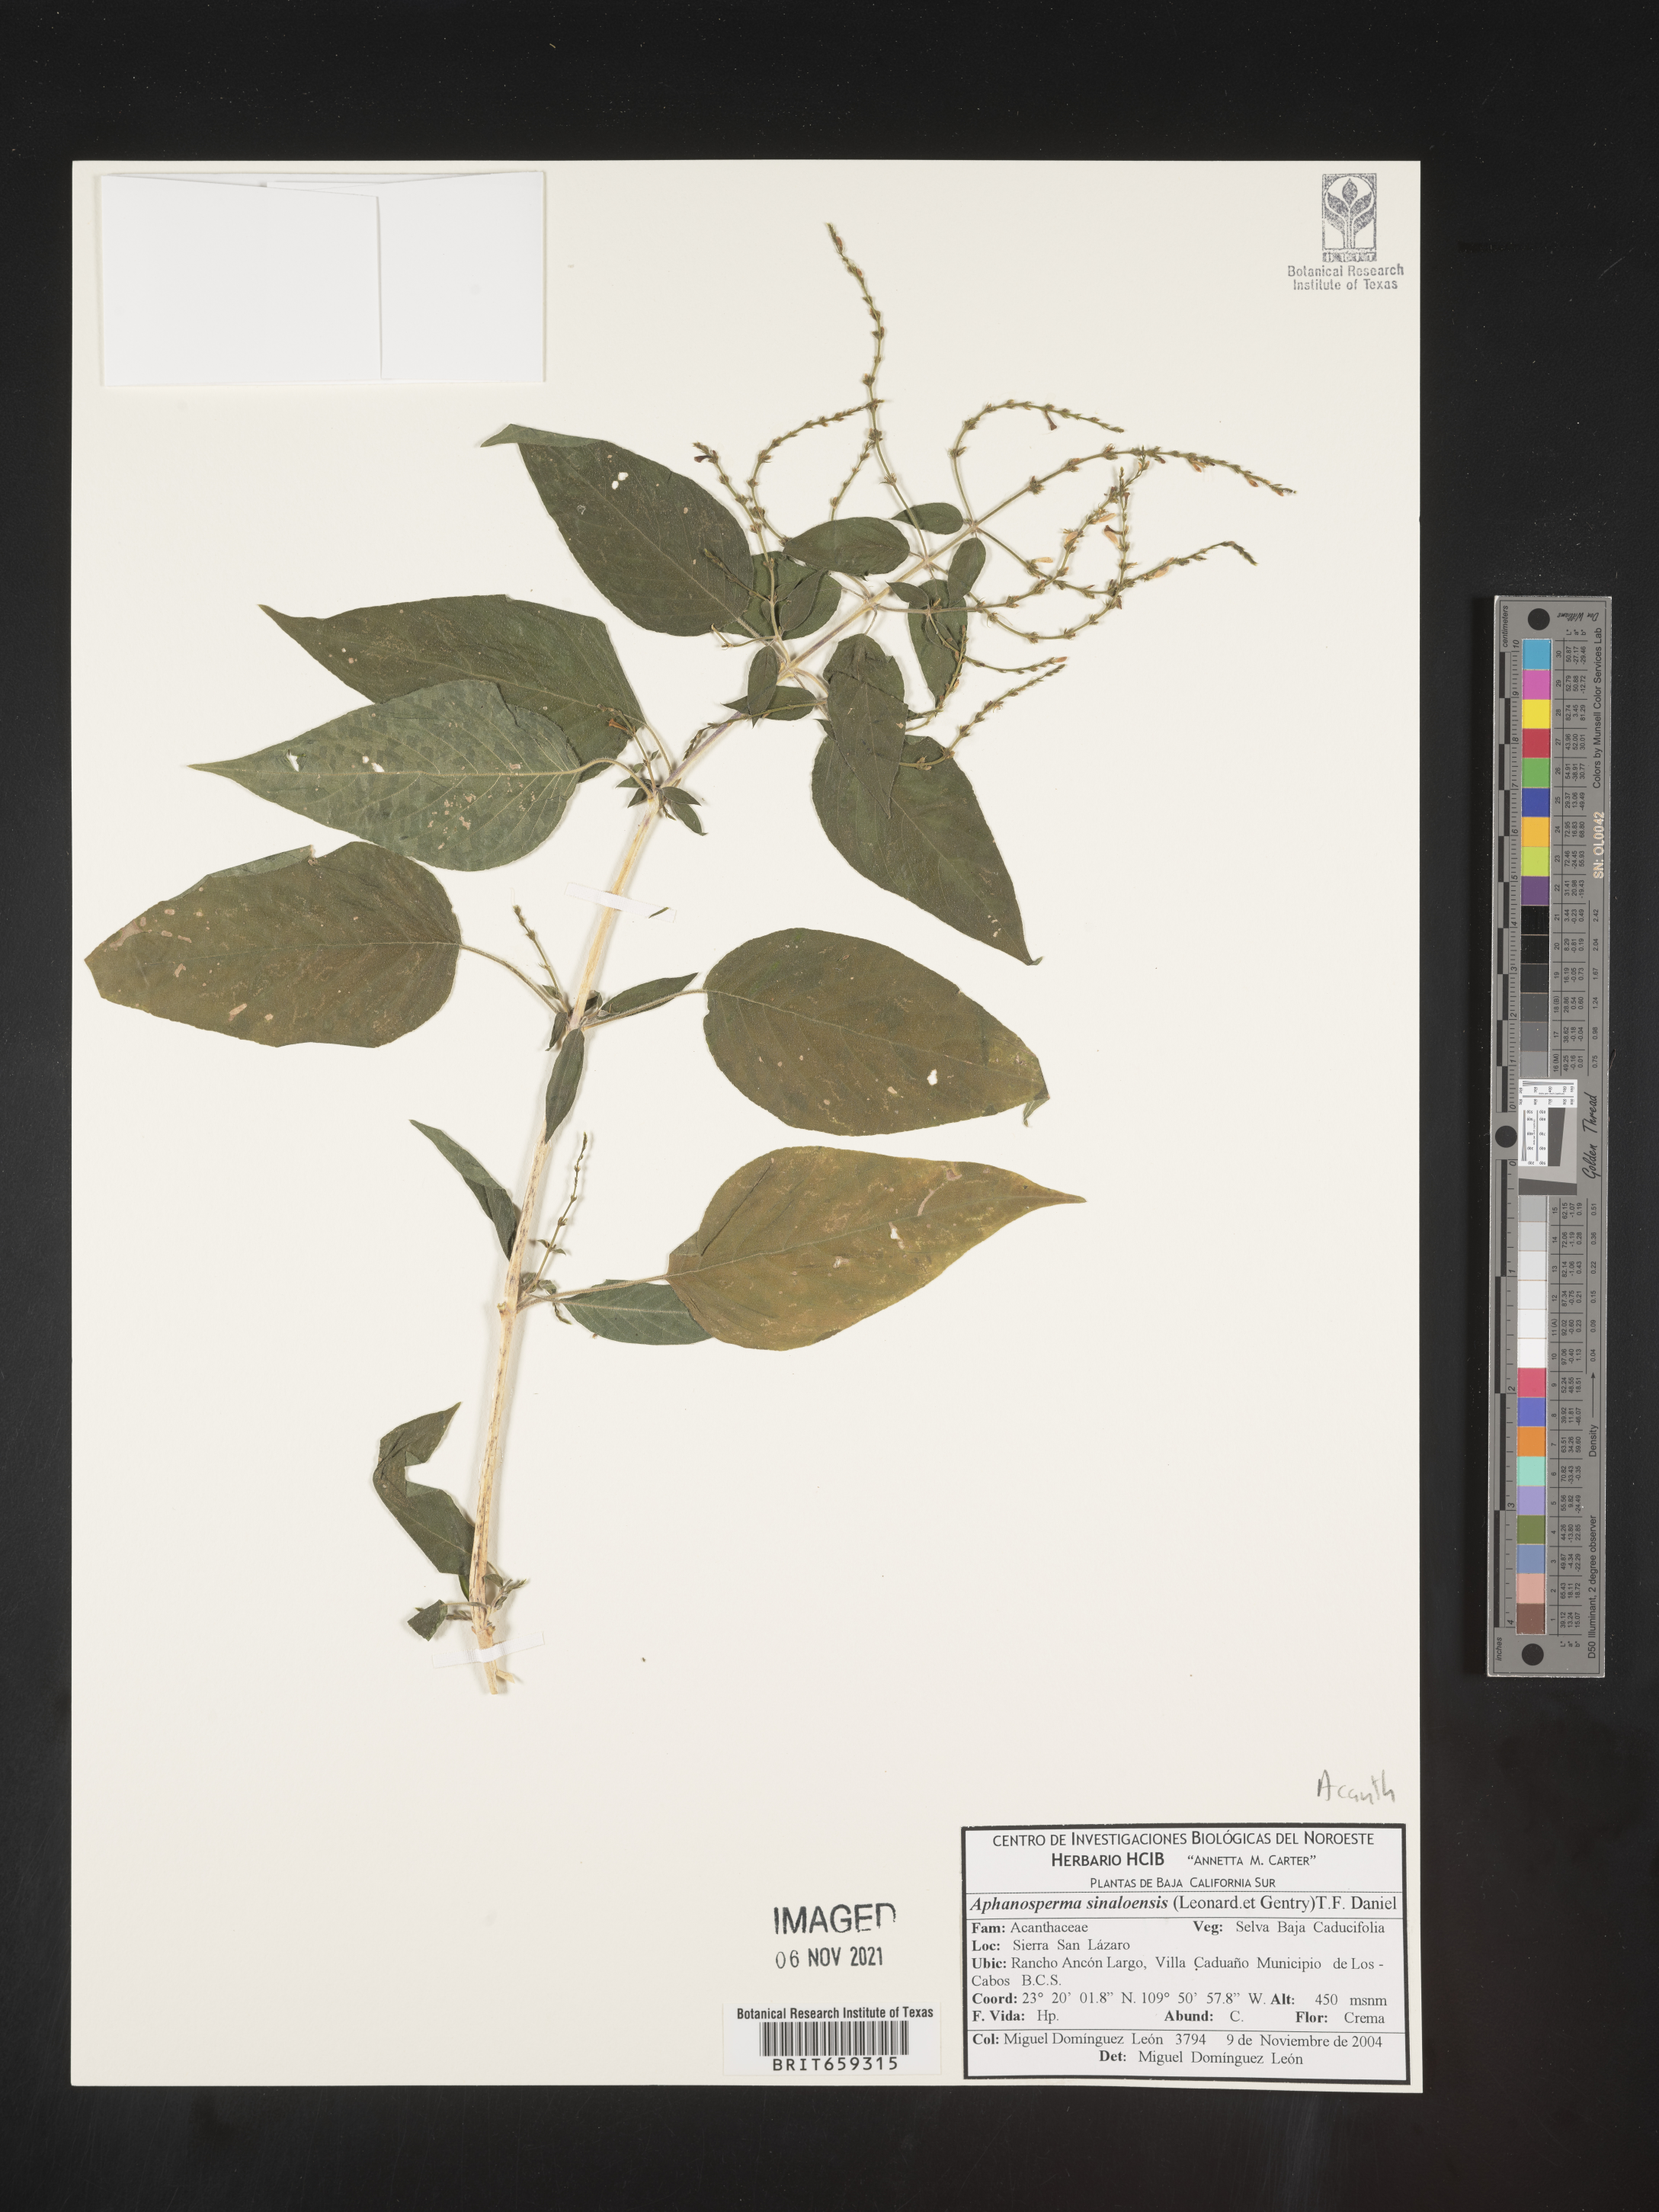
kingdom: Plantae
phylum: Tracheophyta
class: Magnoliopsida
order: Lamiales
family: Acanthaceae
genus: Aphanosperma
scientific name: Aphanosperma
